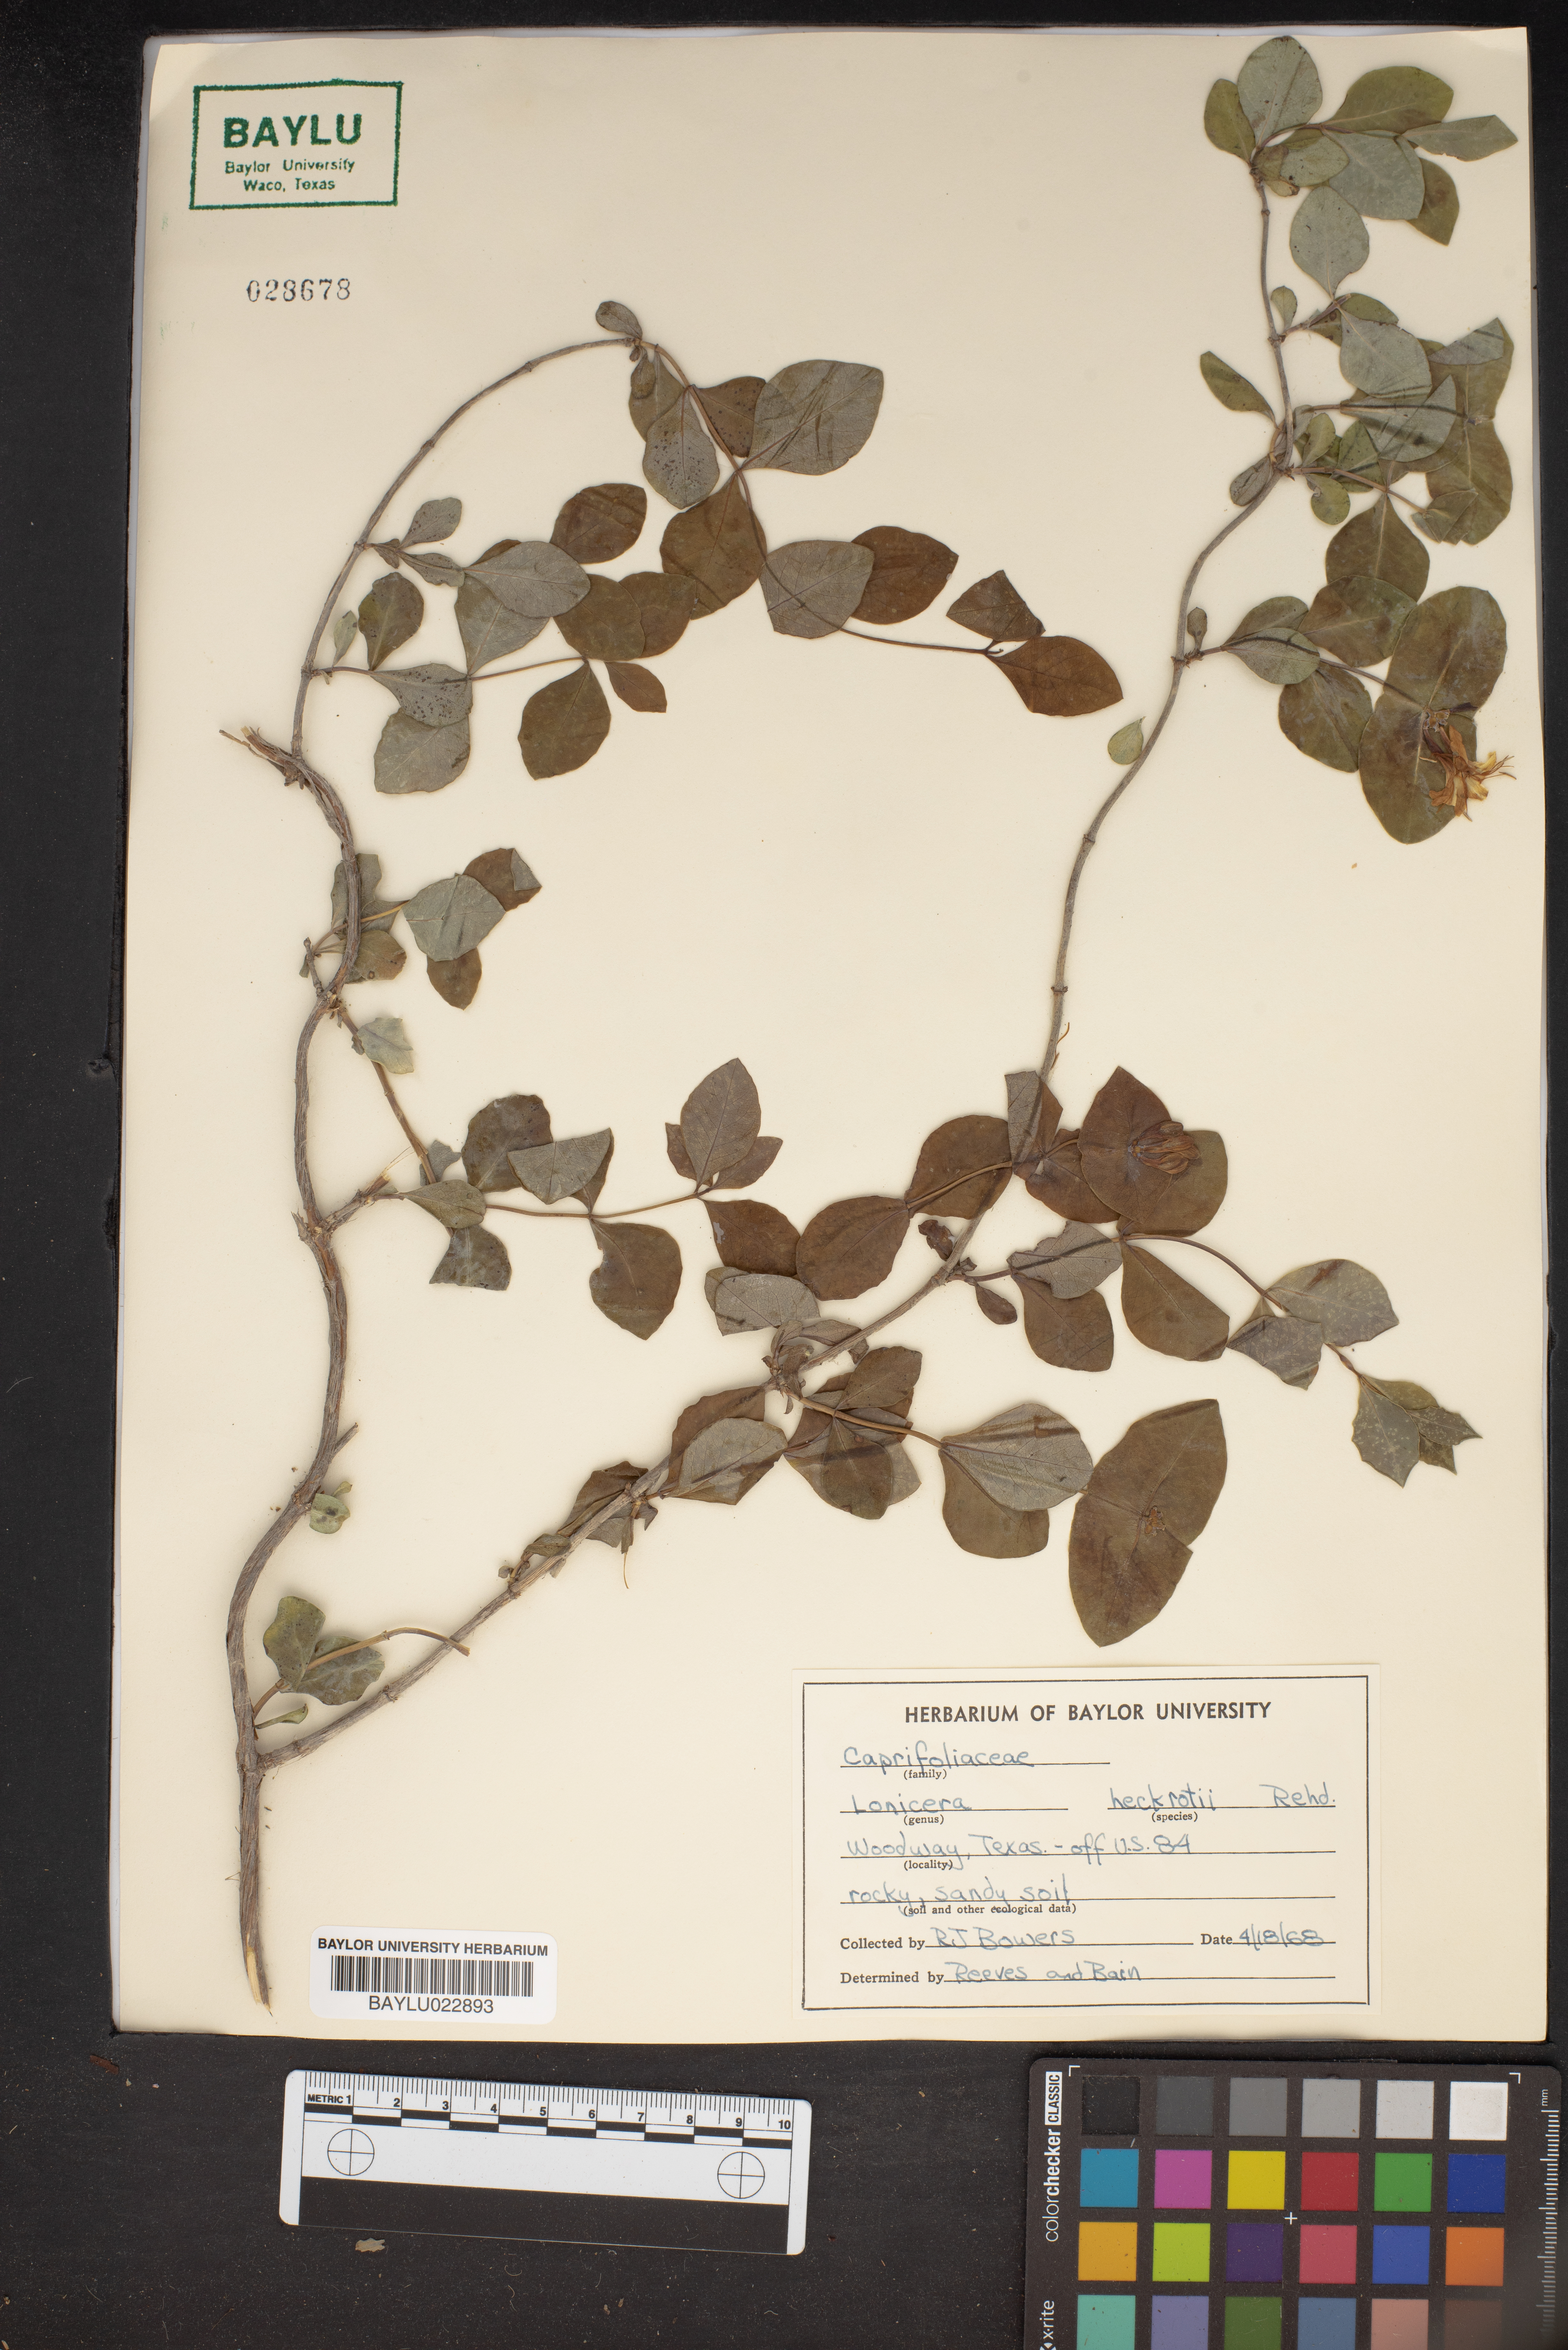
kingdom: Plantae
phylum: Tracheophyta
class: Magnoliopsida
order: Dipsacales
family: Caprifoliaceae
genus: Lonicera
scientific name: Lonicera heckrottii
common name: Honeysuckle
